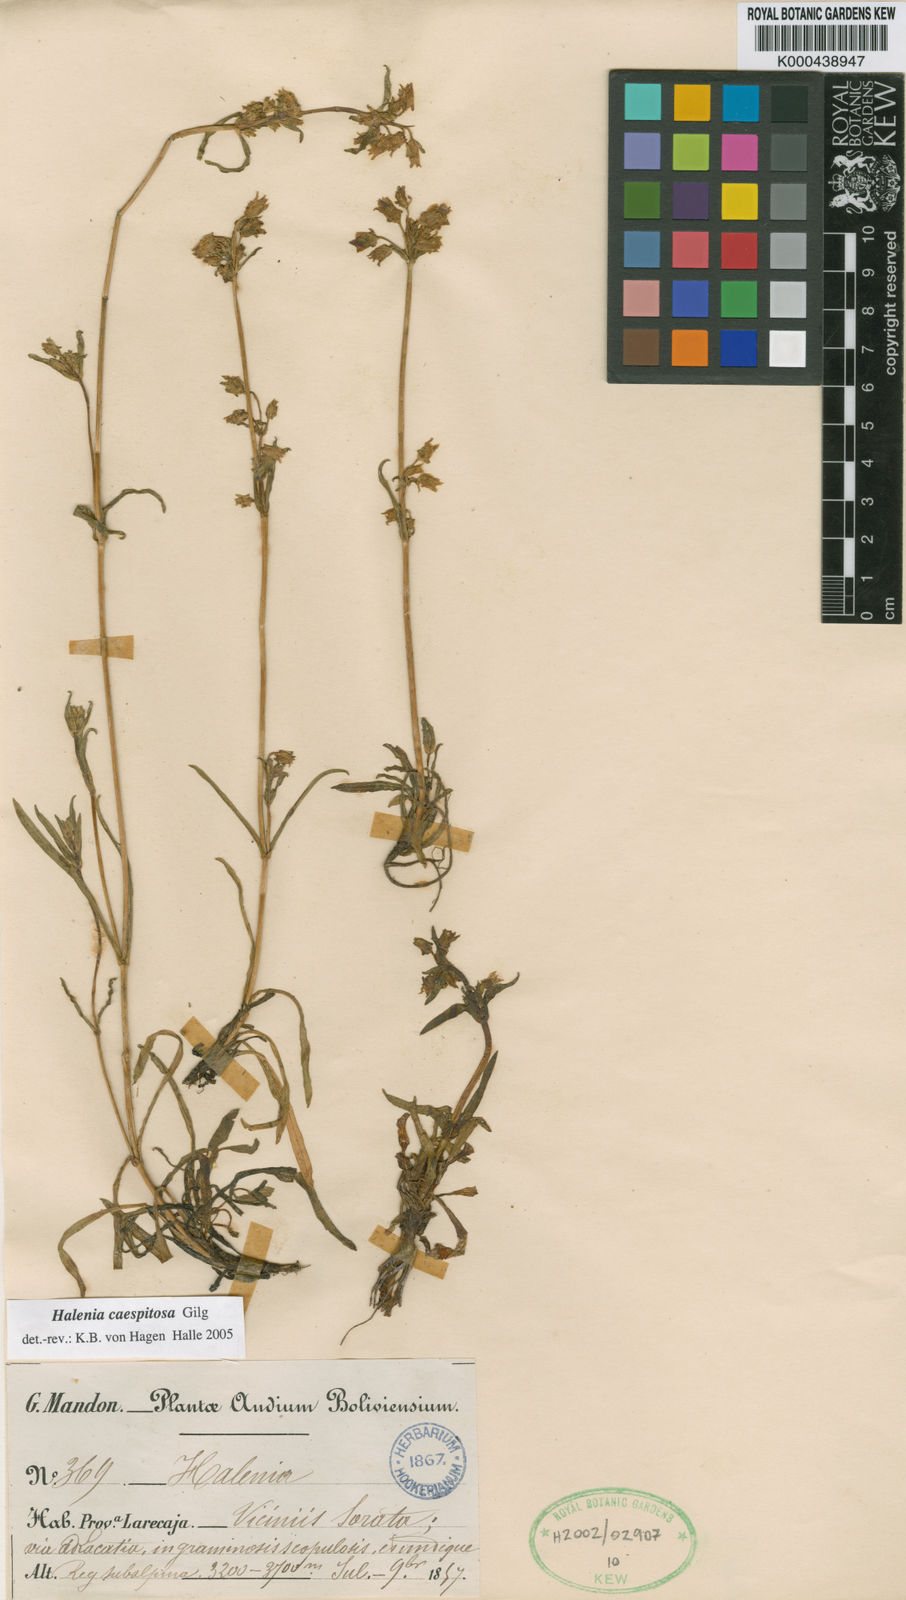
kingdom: Plantae
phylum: Tracheophyta
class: Magnoliopsida
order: Gentianales
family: Gentianaceae
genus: Halenia
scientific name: Halenia caespitosa
